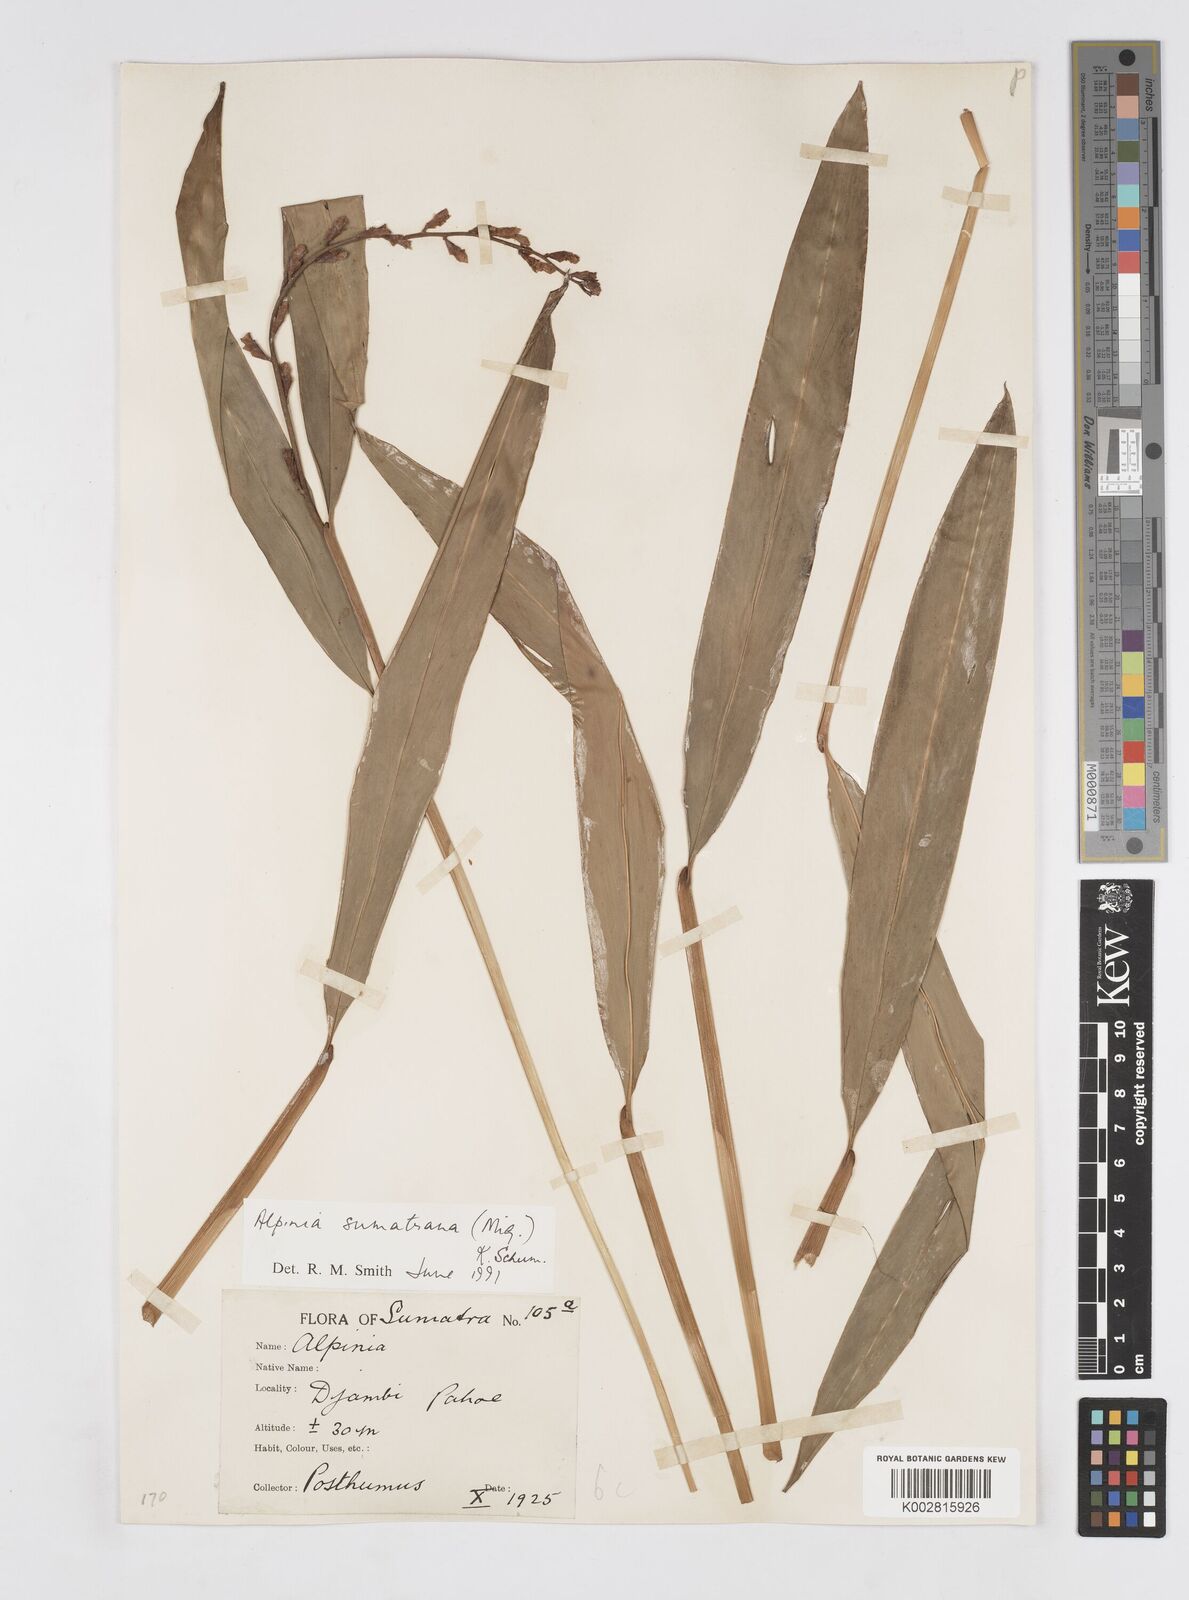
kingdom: Plantae
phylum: Tracheophyta
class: Liliopsida
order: Zingiberales
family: Zingiberaceae
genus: Alpinia
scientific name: Alpinia conchigera
